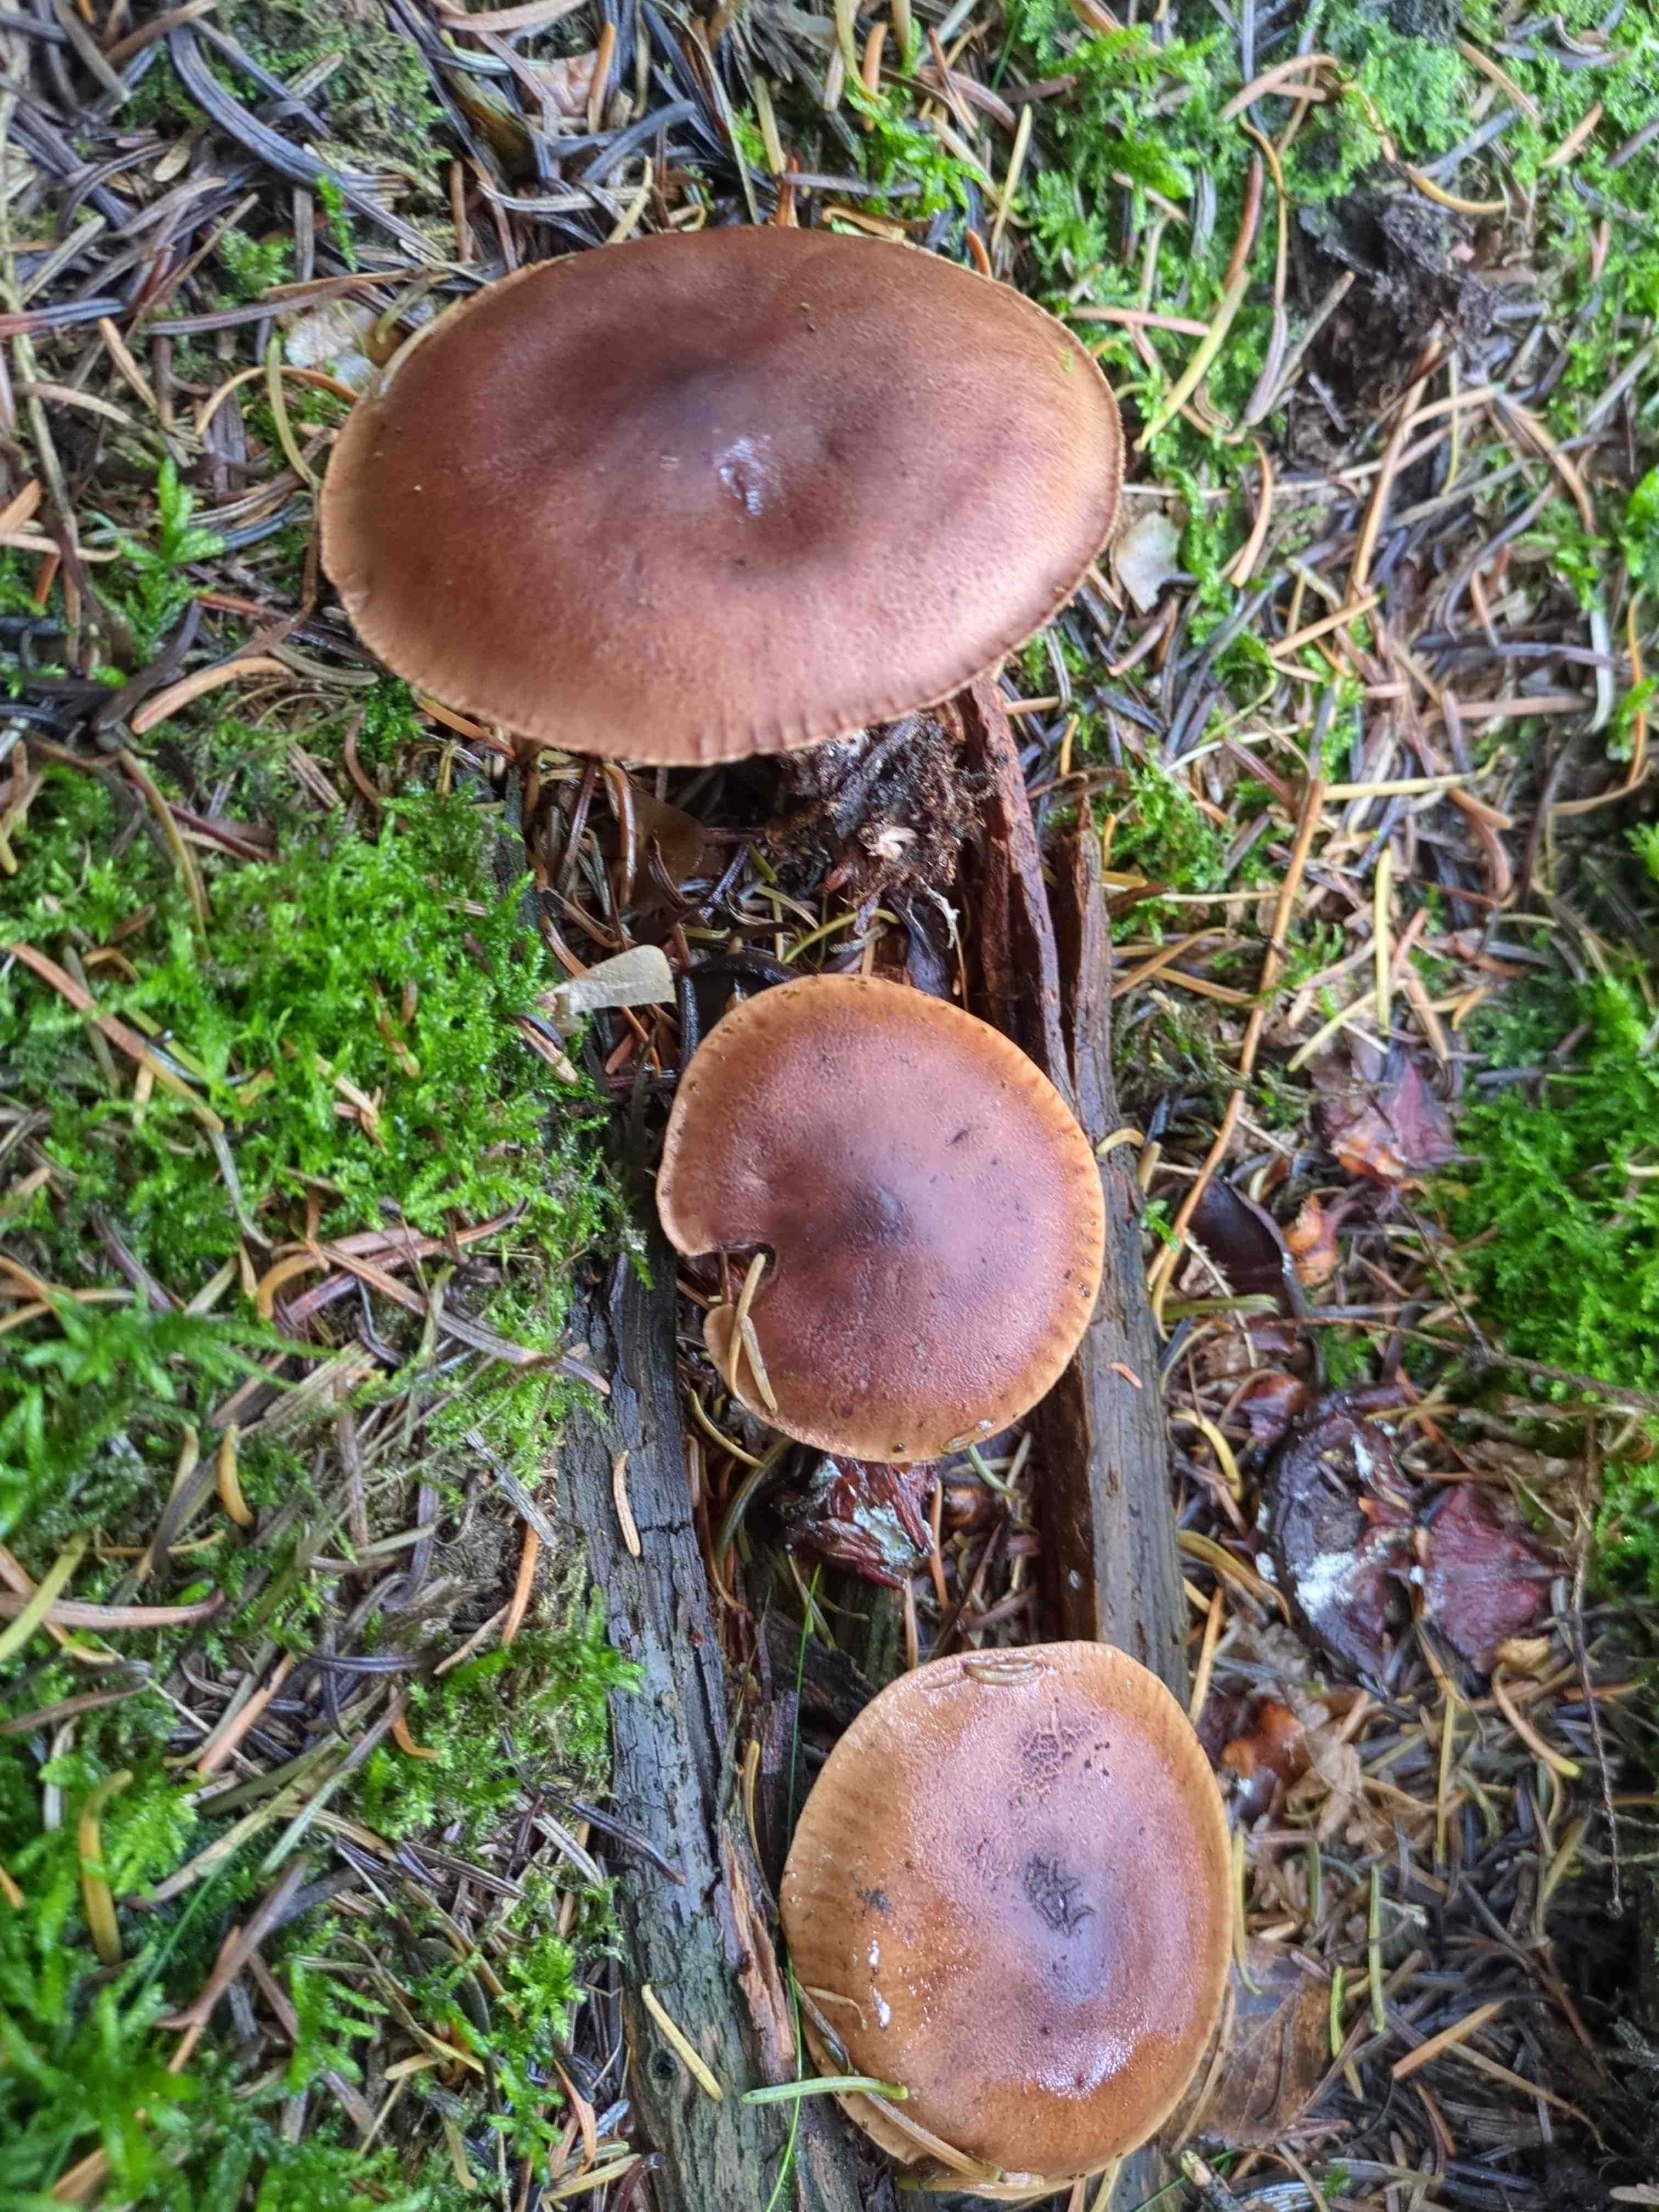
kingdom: Fungi
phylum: Basidiomycota
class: Agaricomycetes
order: Agaricales
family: Tricholomataceae
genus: Tricholoma
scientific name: Tricholoma fulvum
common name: birke-ridderhat
